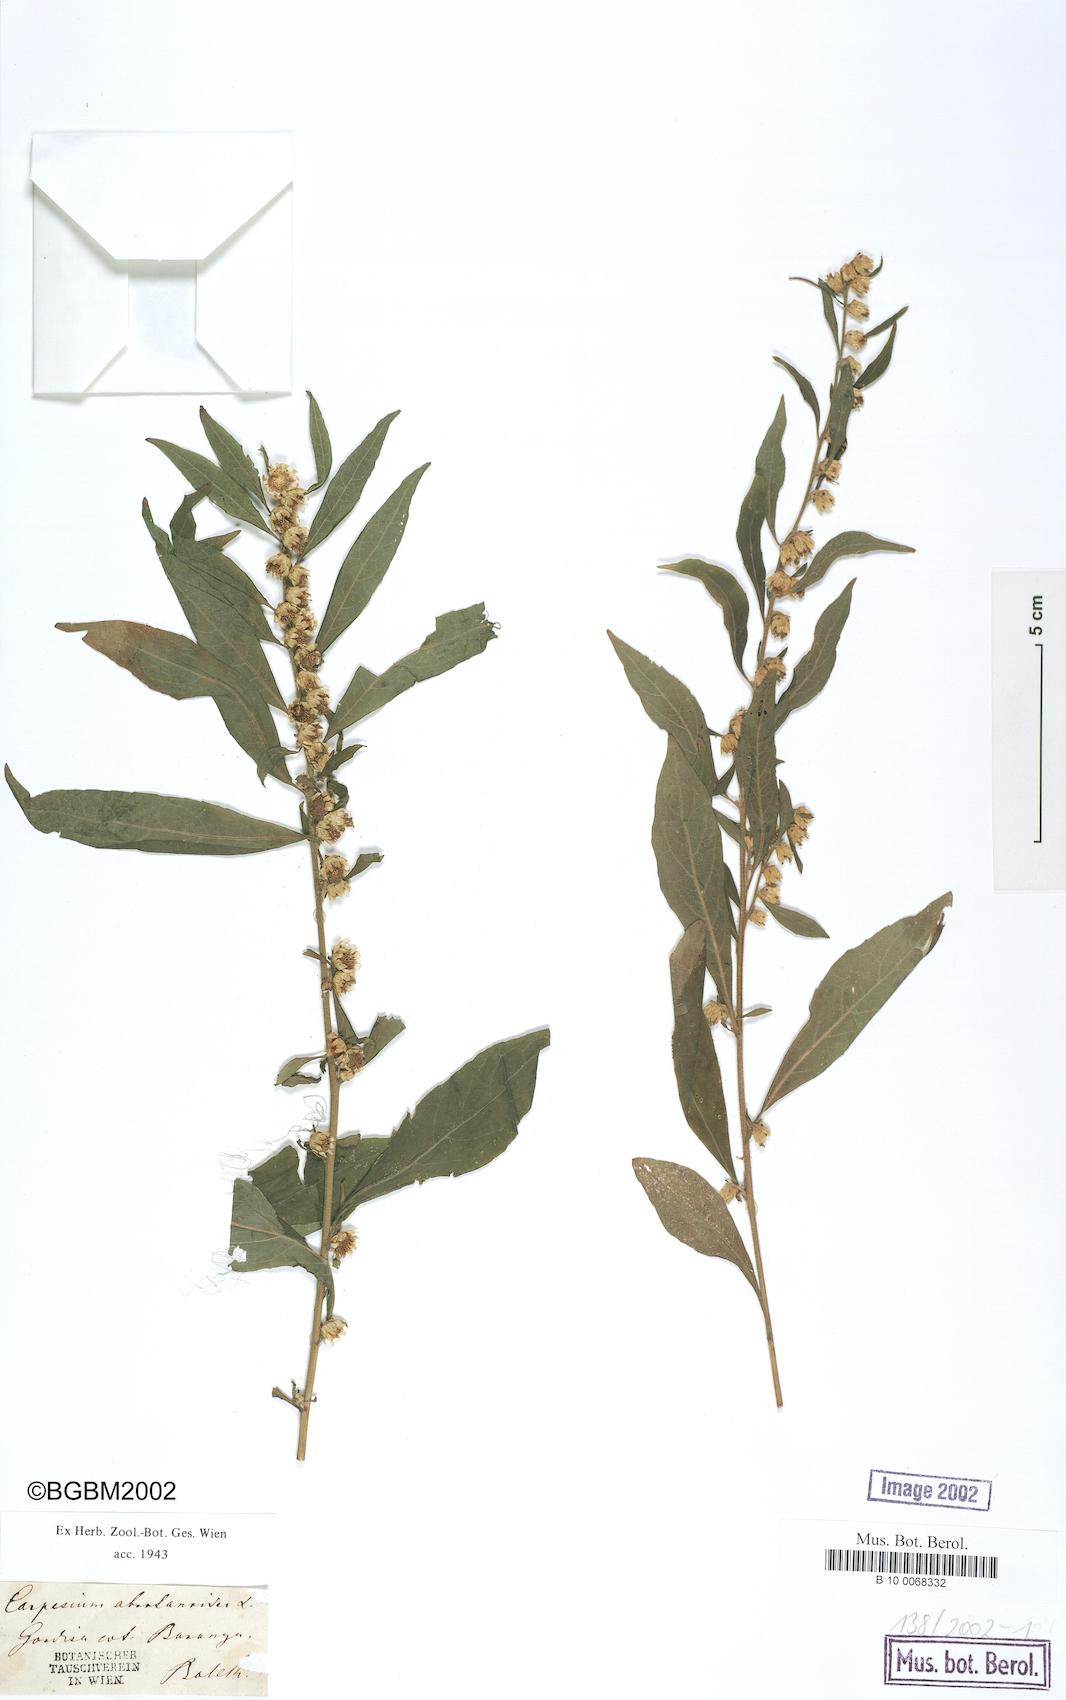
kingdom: Plantae
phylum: Tracheophyta
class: Magnoliopsida
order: Asterales
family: Asteraceae
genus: Carpesium
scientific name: Carpesium abrotanoides
